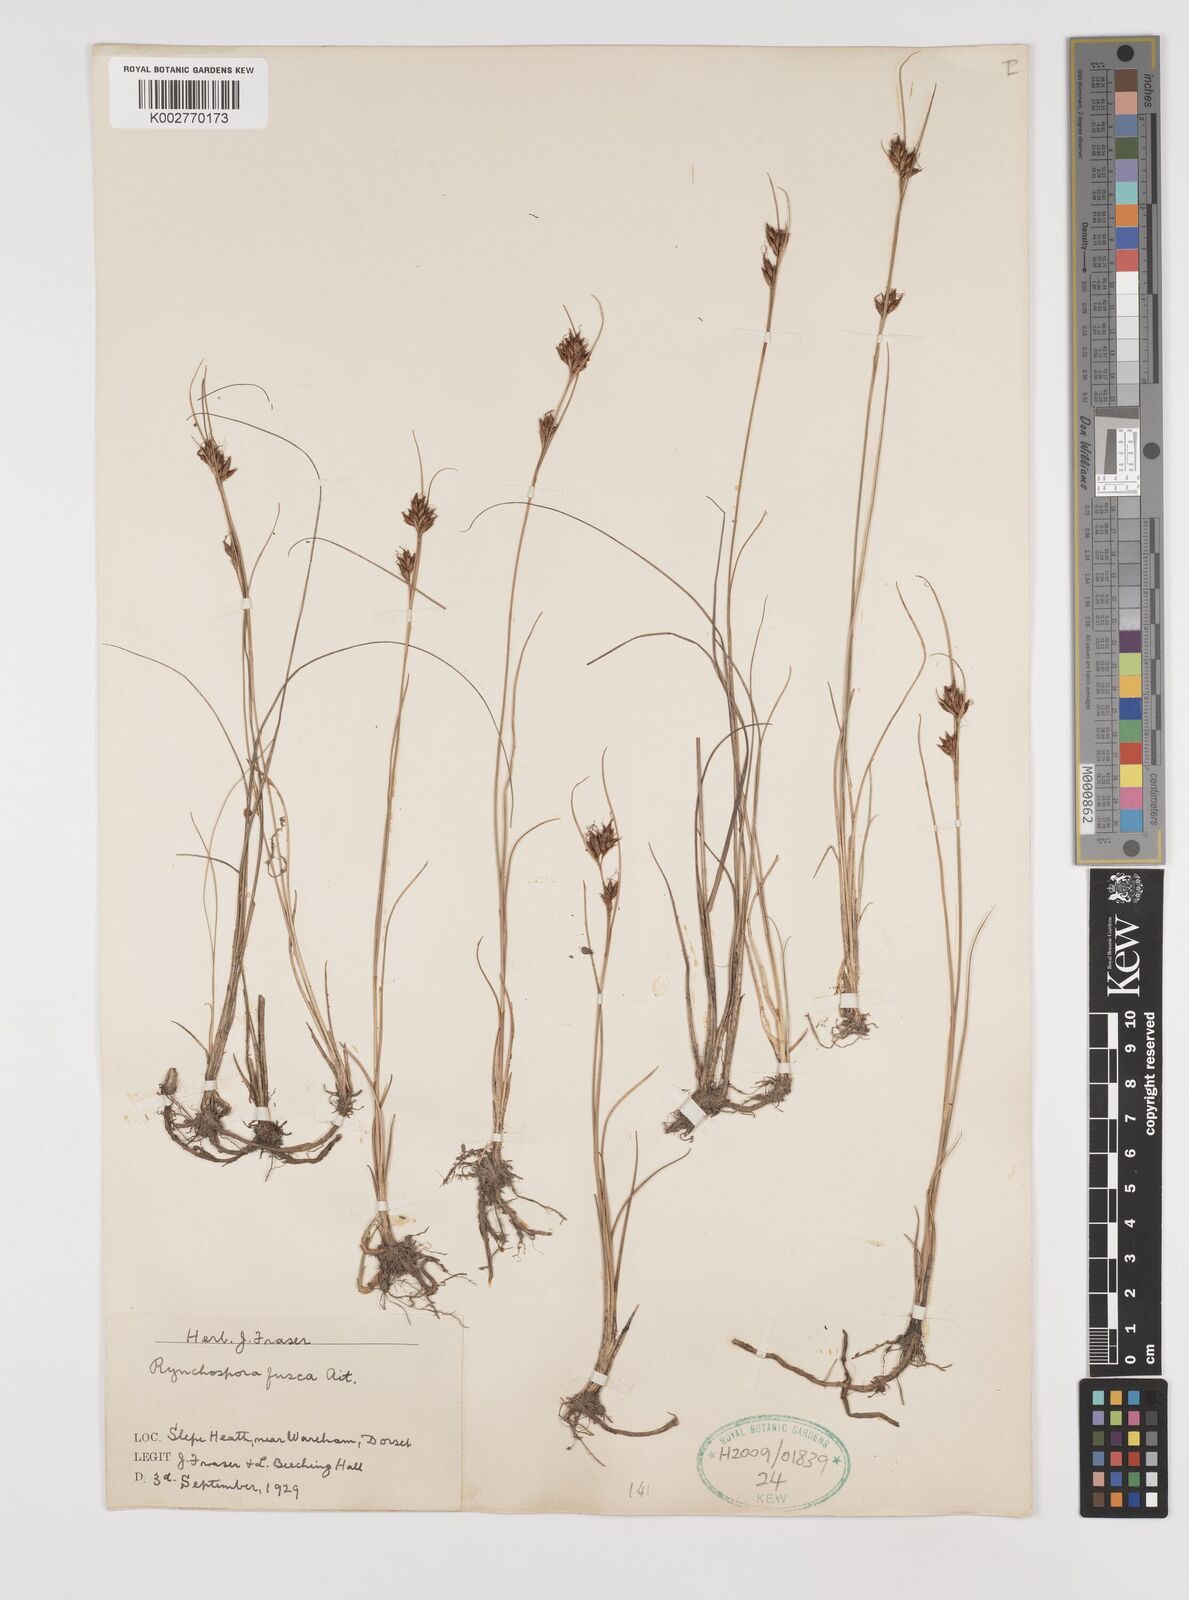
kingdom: Plantae
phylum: Tracheophyta
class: Liliopsida
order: Poales
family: Cyperaceae
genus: Rhynchospora
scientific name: Rhynchospora fusca
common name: Brown beak-sedge
